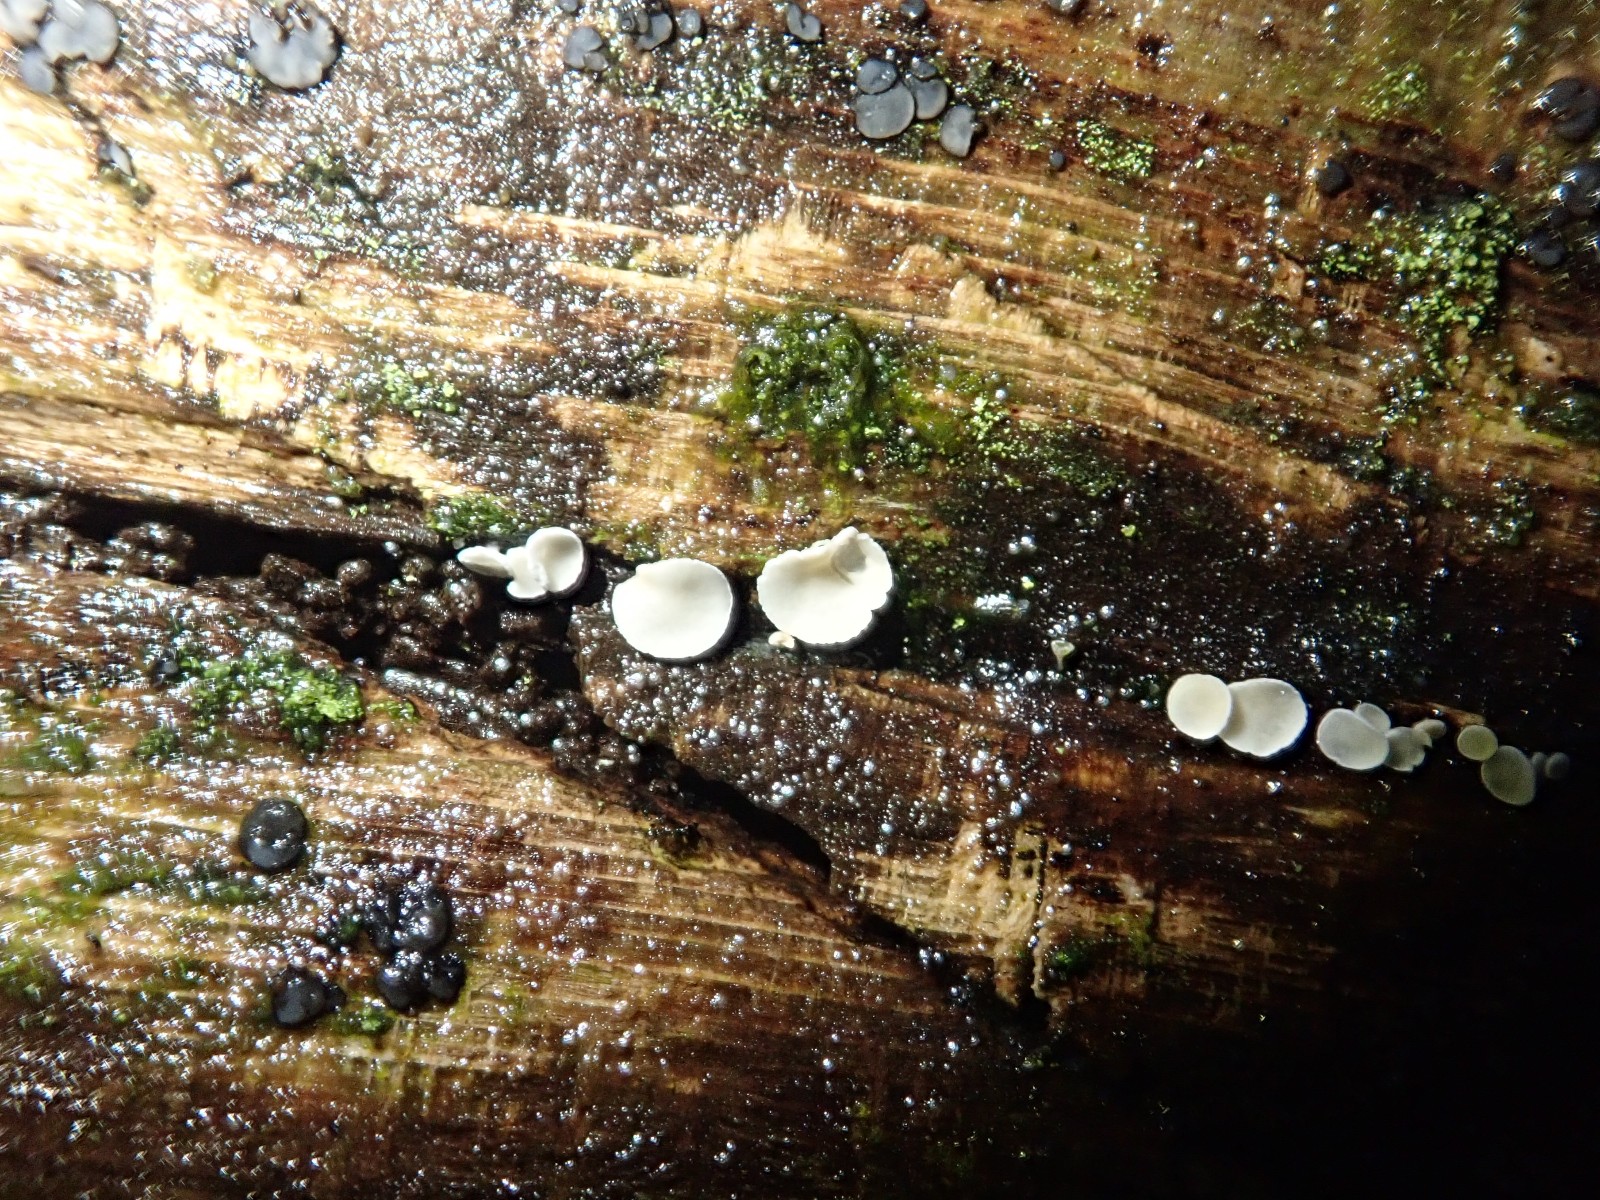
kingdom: Fungi
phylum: Ascomycota
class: Leotiomycetes
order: Helotiales
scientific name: Helotiales
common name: stilkskiveordenen
